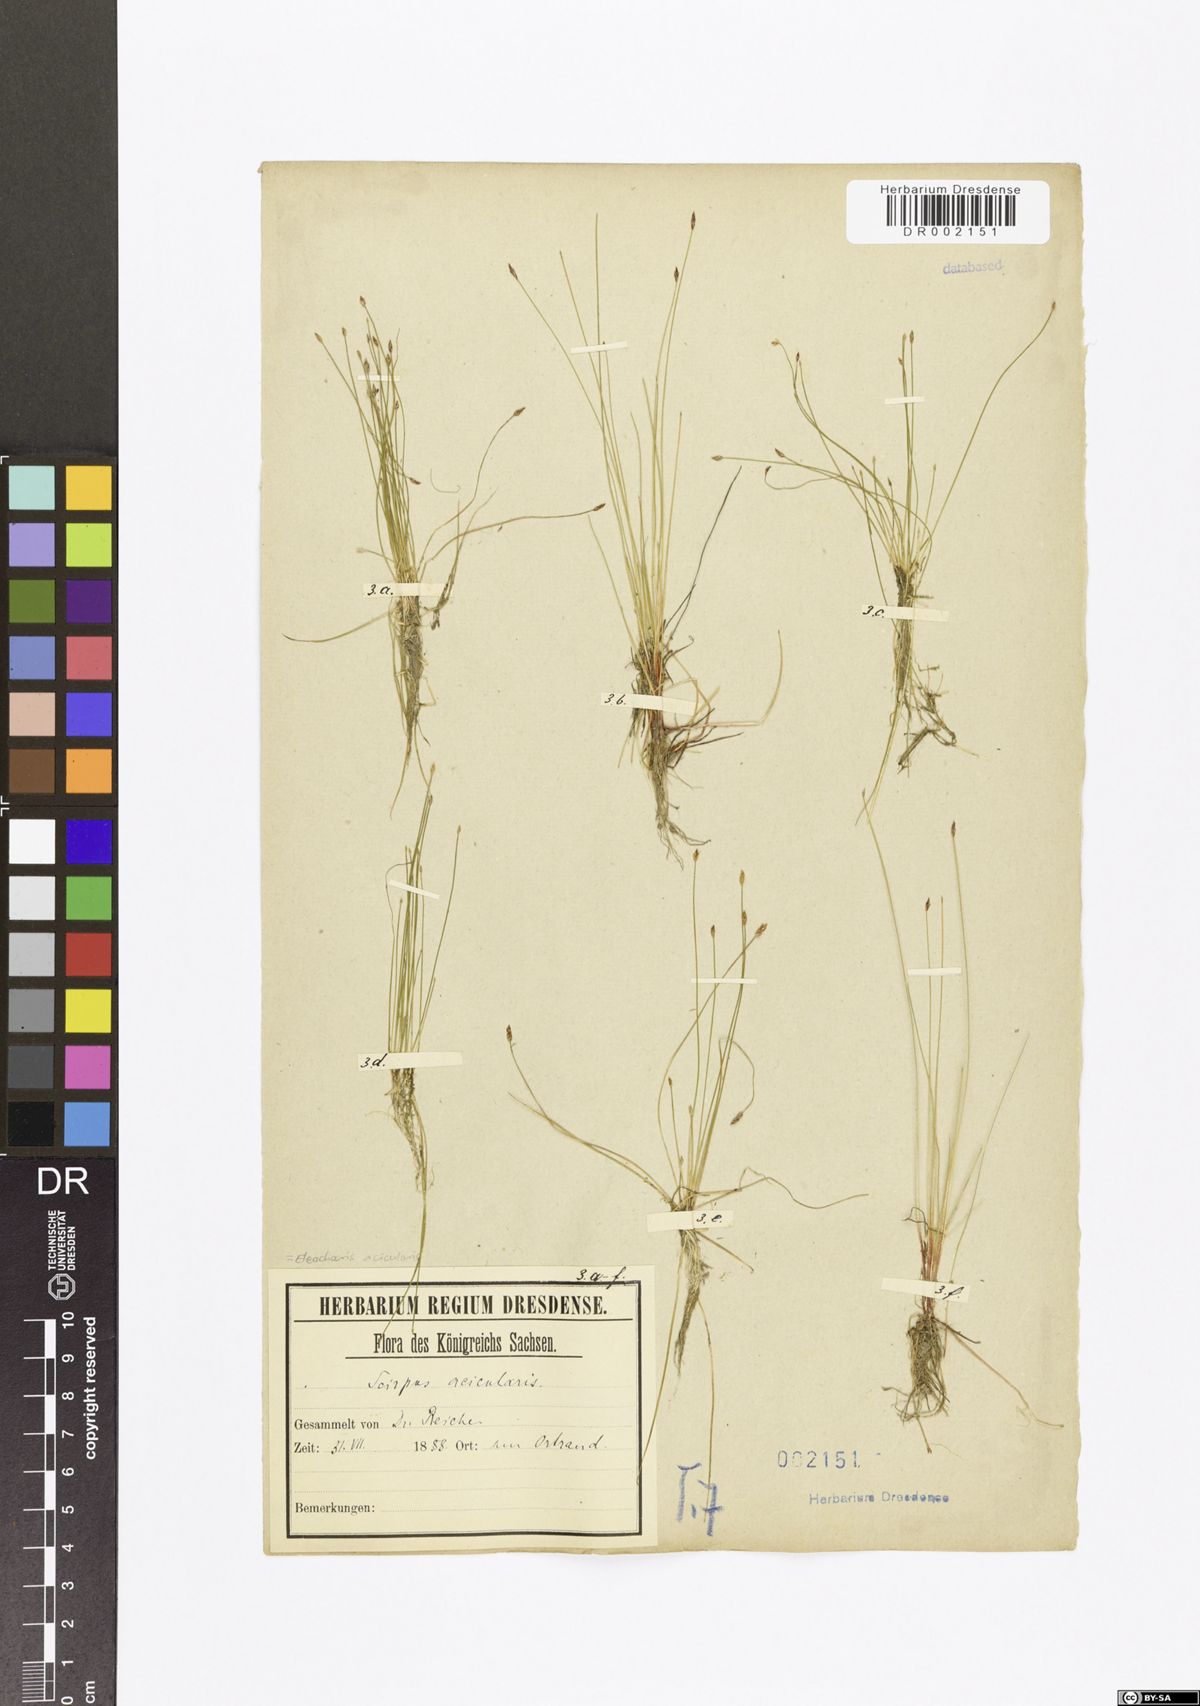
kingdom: Plantae
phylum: Tracheophyta
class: Liliopsida
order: Poales
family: Cyperaceae
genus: Eleocharis
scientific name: Eleocharis acicularis
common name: Needle spike-rush
